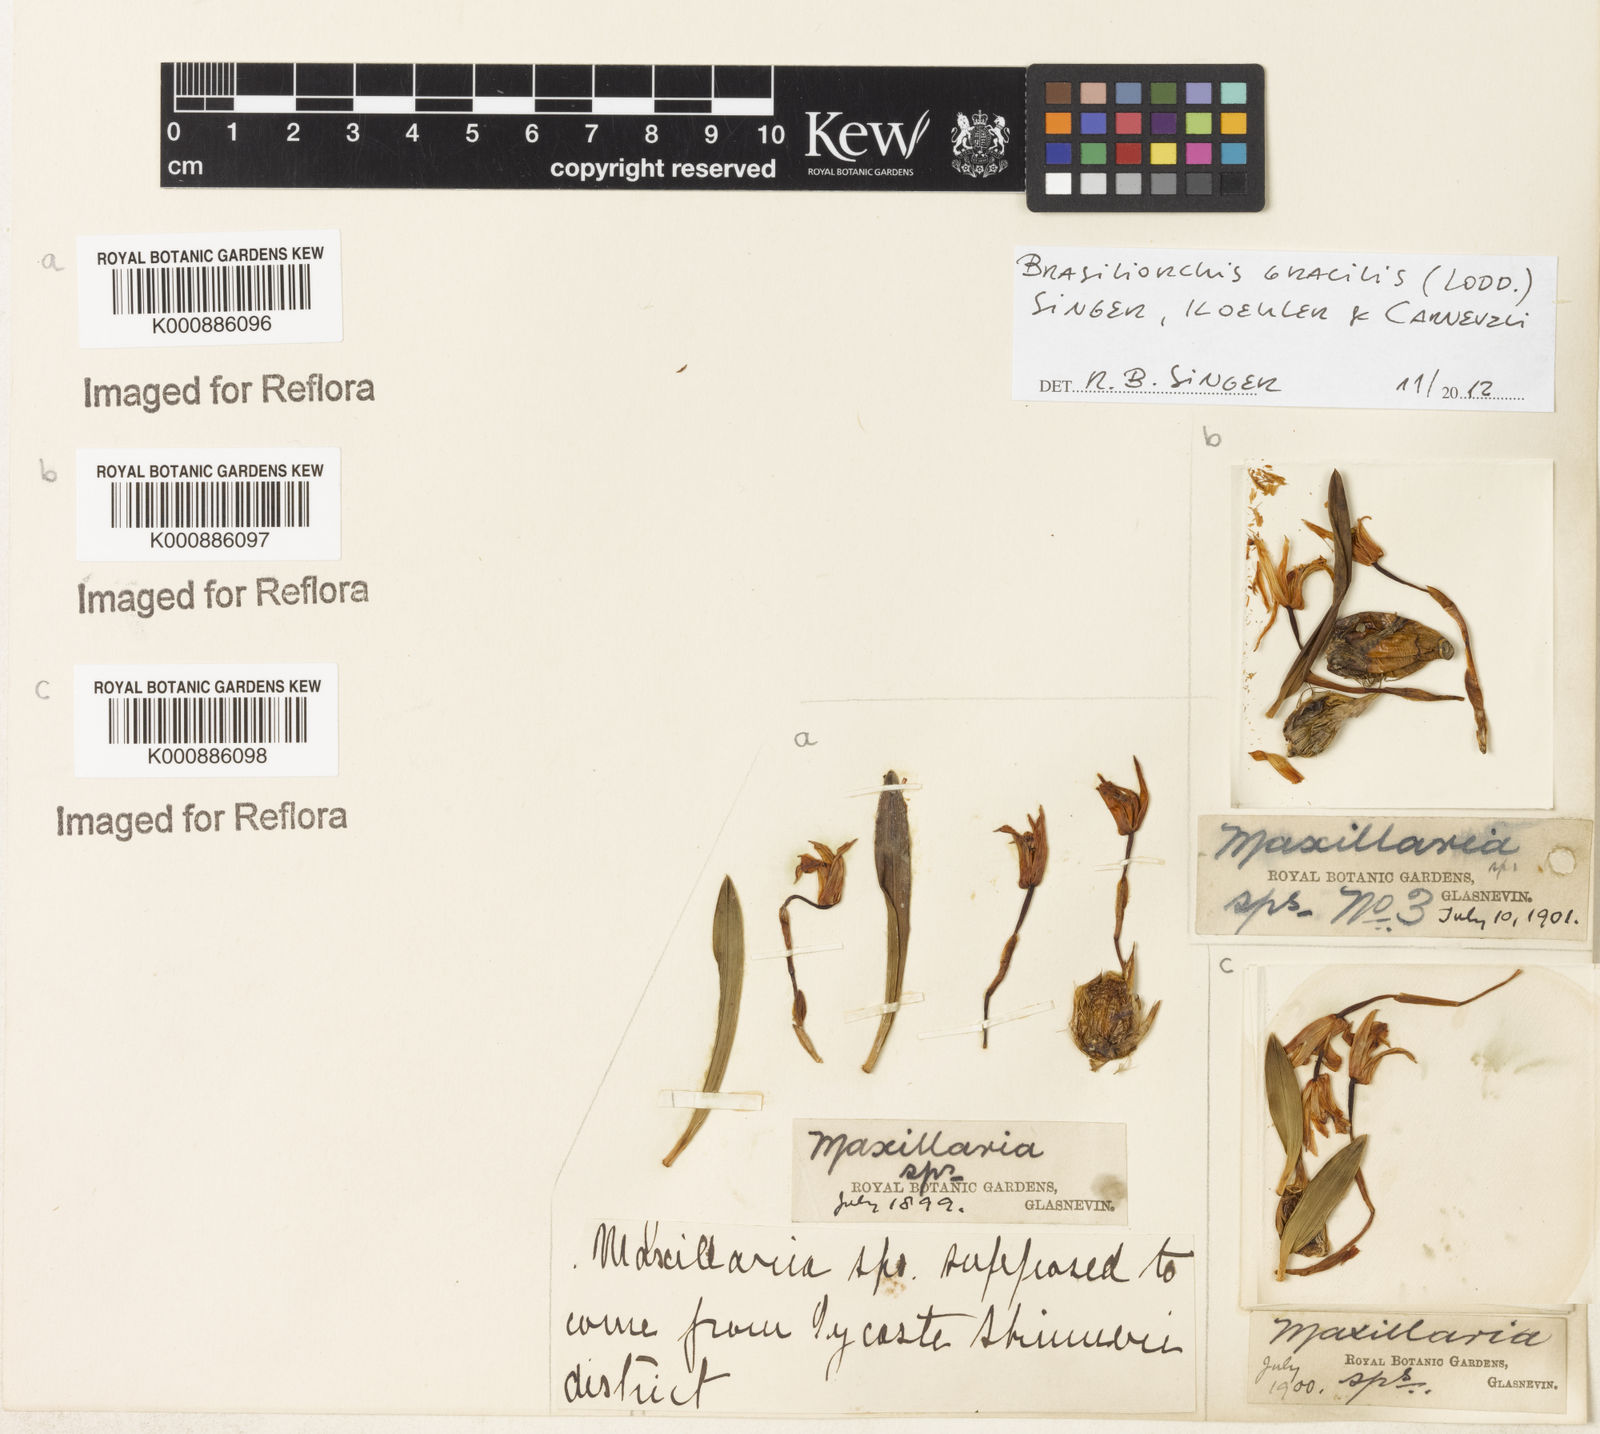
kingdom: Plantae
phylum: Tracheophyta
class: Liliopsida
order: Asparagales
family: Orchidaceae
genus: Maxillaria
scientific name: Maxillaria
